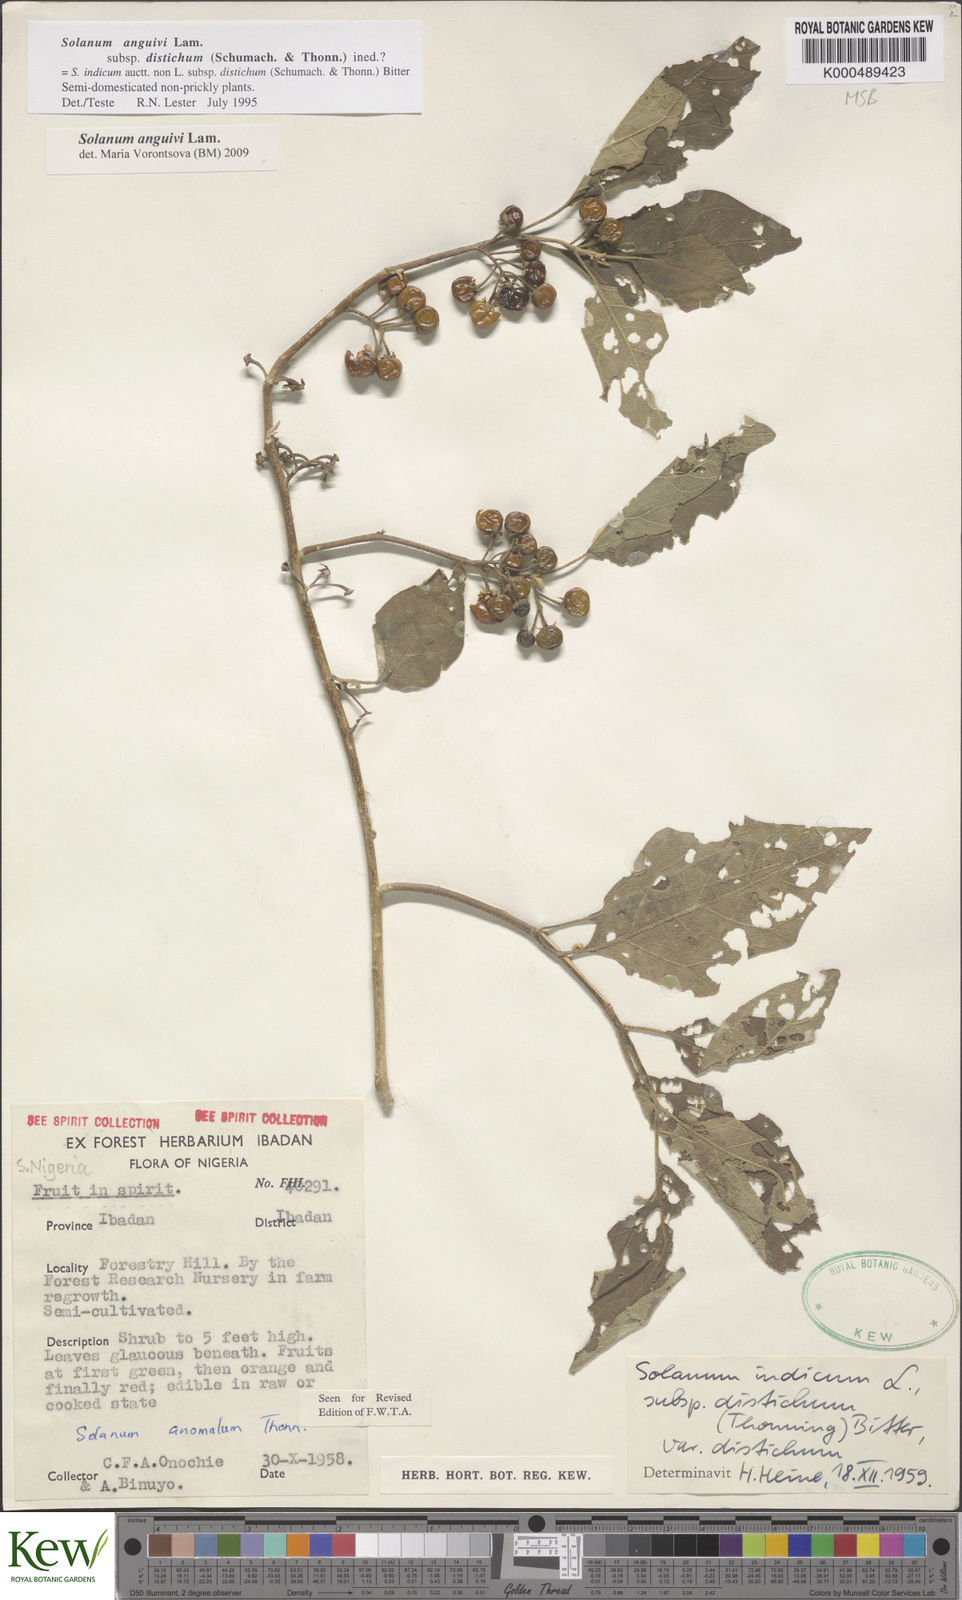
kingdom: Plantae
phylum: Tracheophyta
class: Magnoliopsida
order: Solanales
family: Solanaceae
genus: Solanum
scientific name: Solanum anguivi
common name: Forest bitterberry
